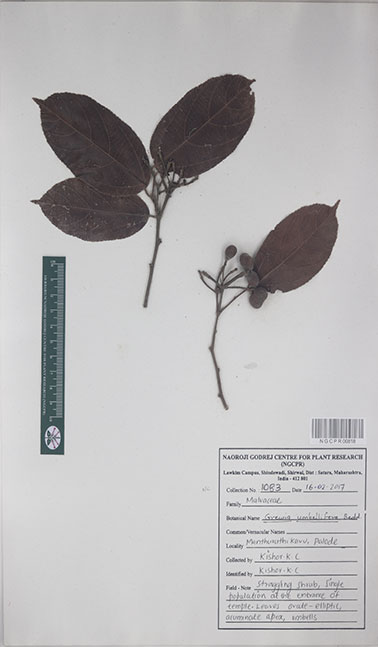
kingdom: Plantae
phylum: Tracheophyta
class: Magnoliopsida
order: Malvales
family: Malvaceae
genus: Grewia
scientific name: Grewia umbellifera
